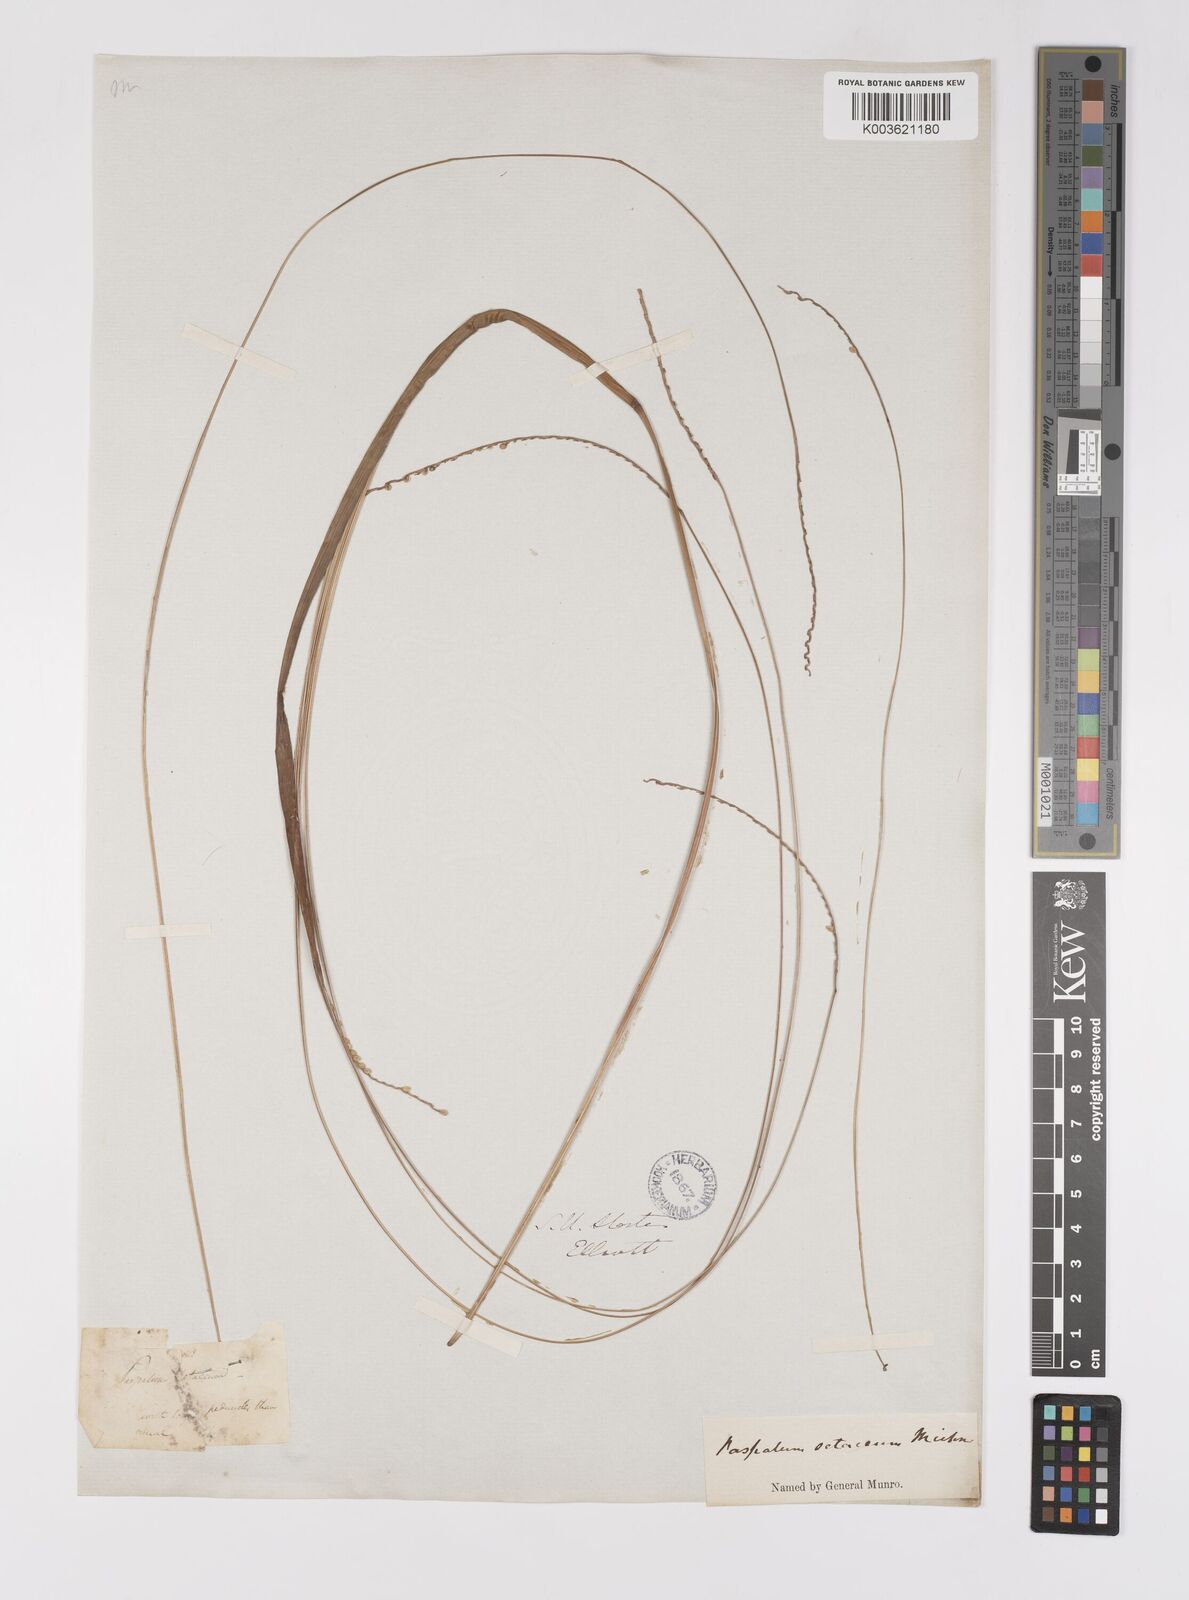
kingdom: Plantae
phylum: Tracheophyta
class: Liliopsida
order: Poales
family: Poaceae
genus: Paspalum
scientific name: Paspalum setaceum
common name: Slender paspalum
